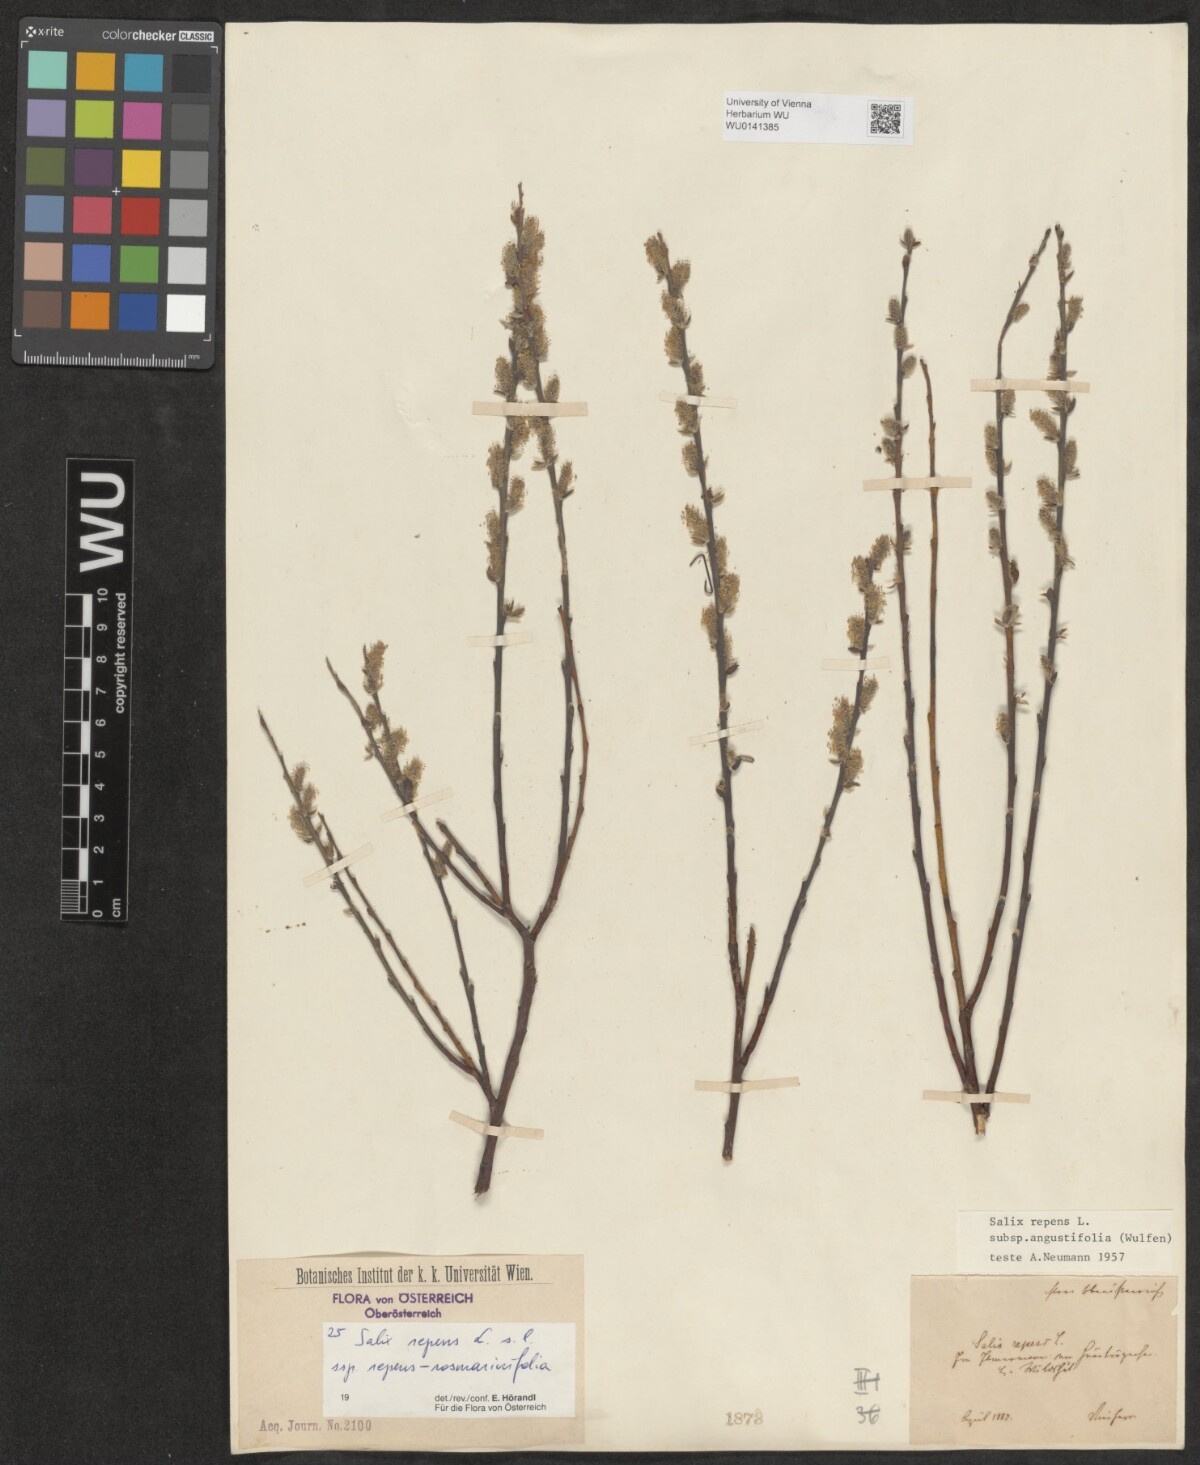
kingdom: Plantae
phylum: Tracheophyta
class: Magnoliopsida
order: Malpighiales
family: Salicaceae
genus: Salix
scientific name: Salix repens
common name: Creeping willow
